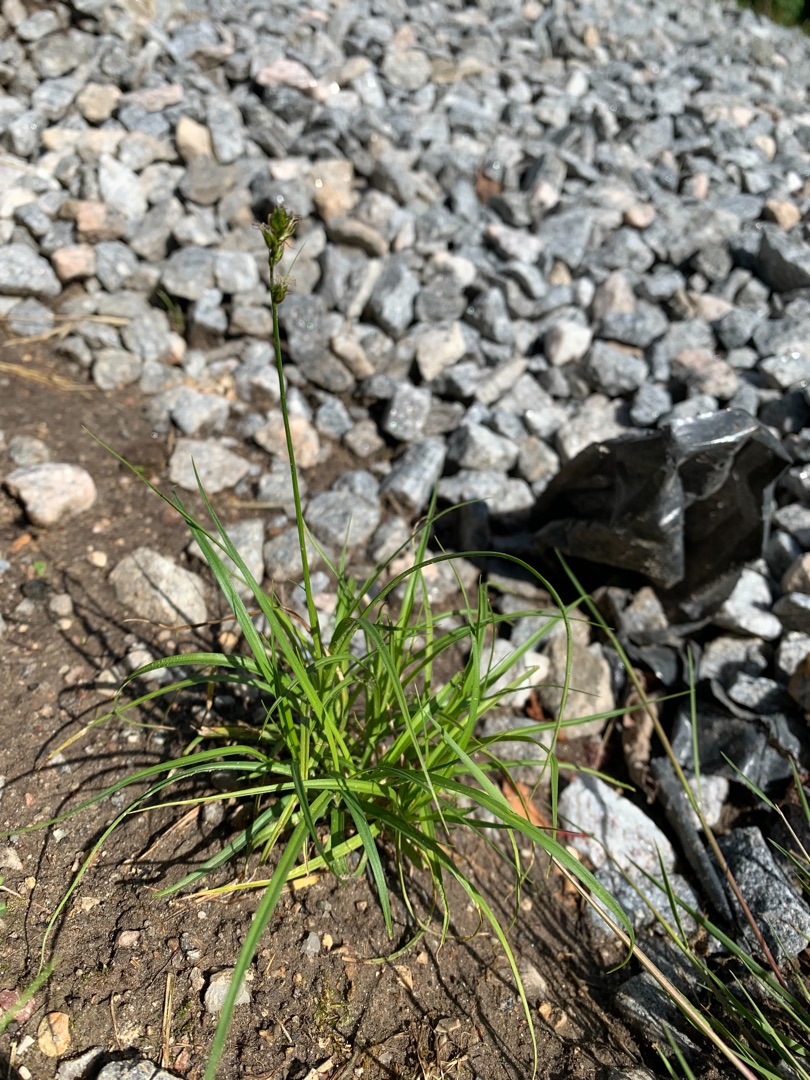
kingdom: Plantae
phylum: Tracheophyta
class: Liliopsida
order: Poales
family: Cyperaceae
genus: Carex
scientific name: Carex divulsa
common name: Mellembrudt star
